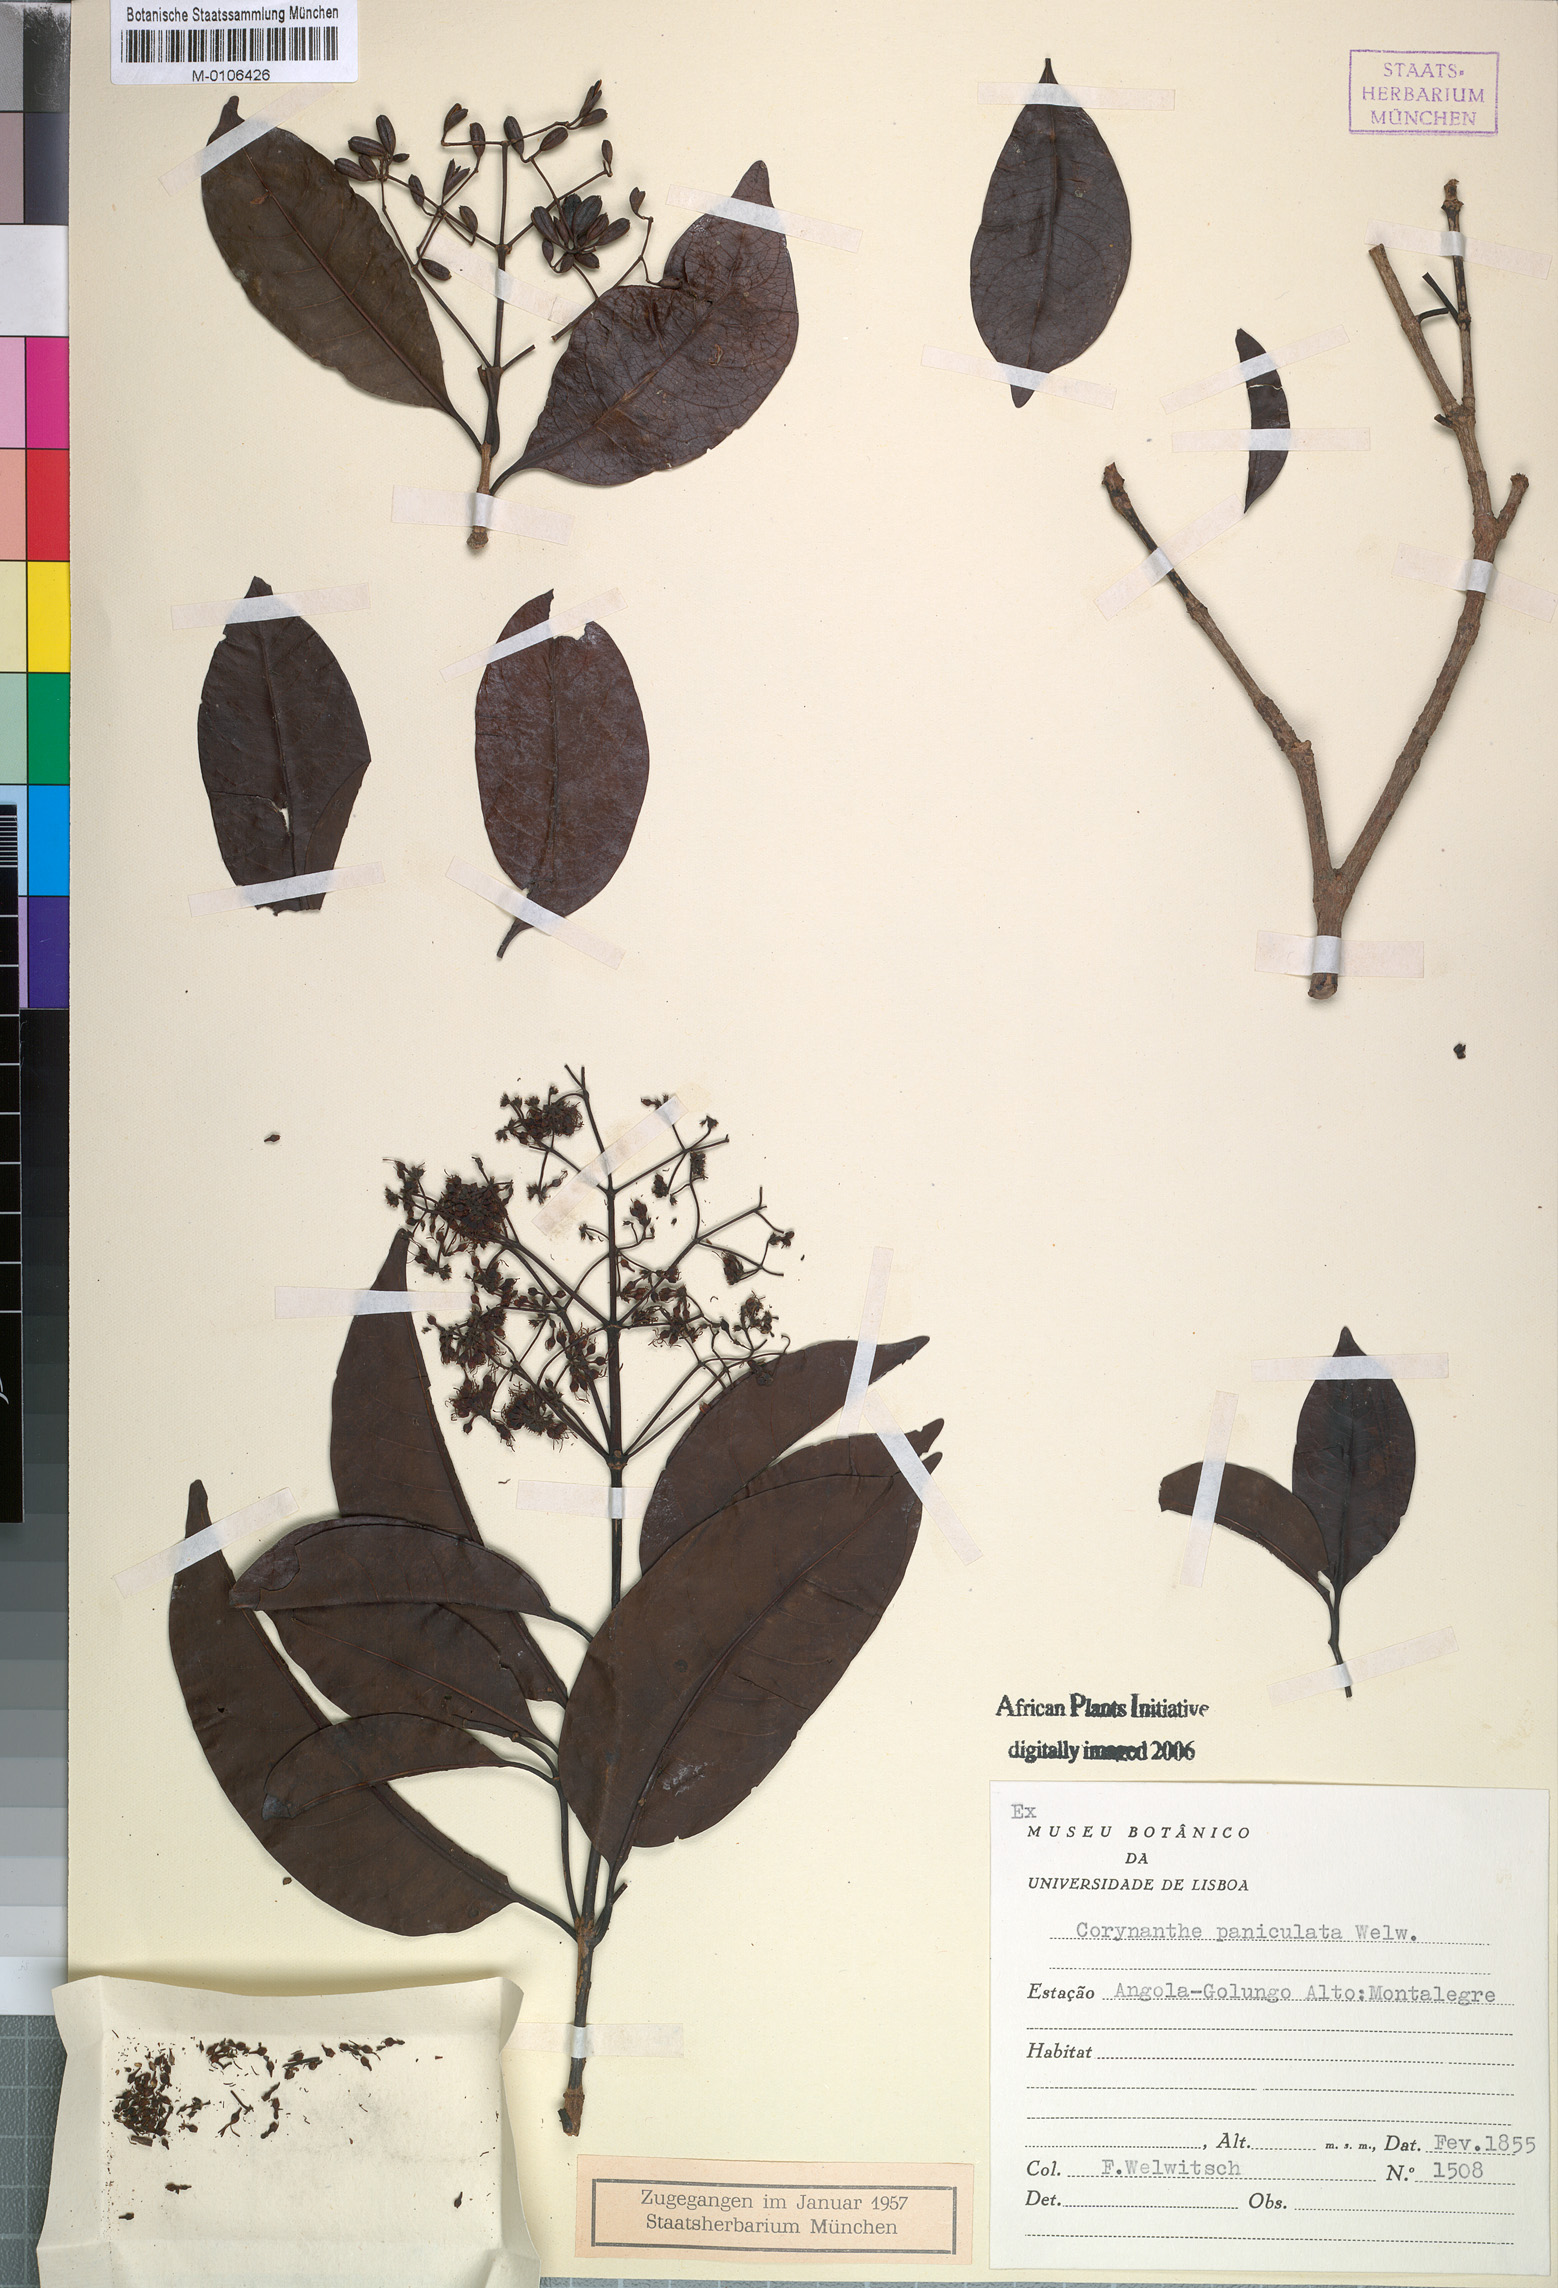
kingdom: Plantae
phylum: Tracheophyta
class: Magnoliopsida
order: Gentianales
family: Rubiaceae
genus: Corynanthe
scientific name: Corynanthe paniculata
